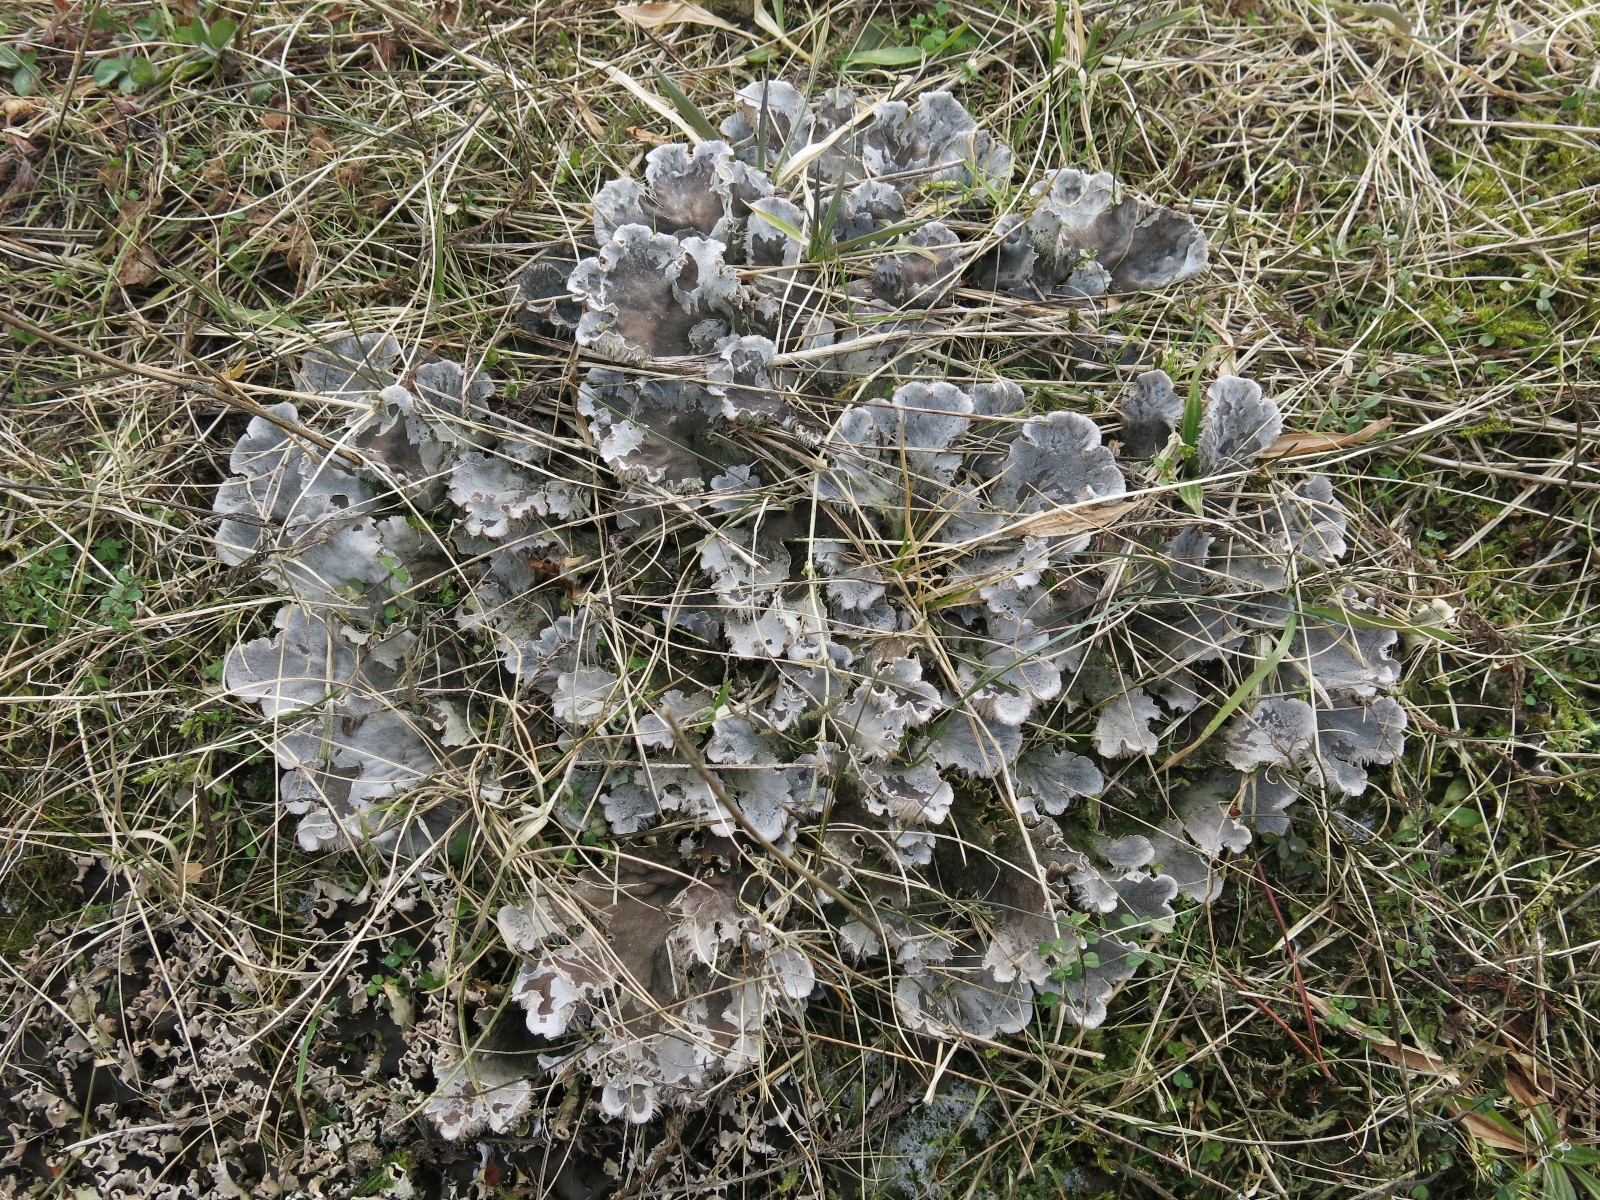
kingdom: Fungi
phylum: Ascomycota
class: Lecanoromycetes
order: Peltigerales
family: Peltigeraceae
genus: Peltigera
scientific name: Peltigera canina
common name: hunde-skjoldlav
